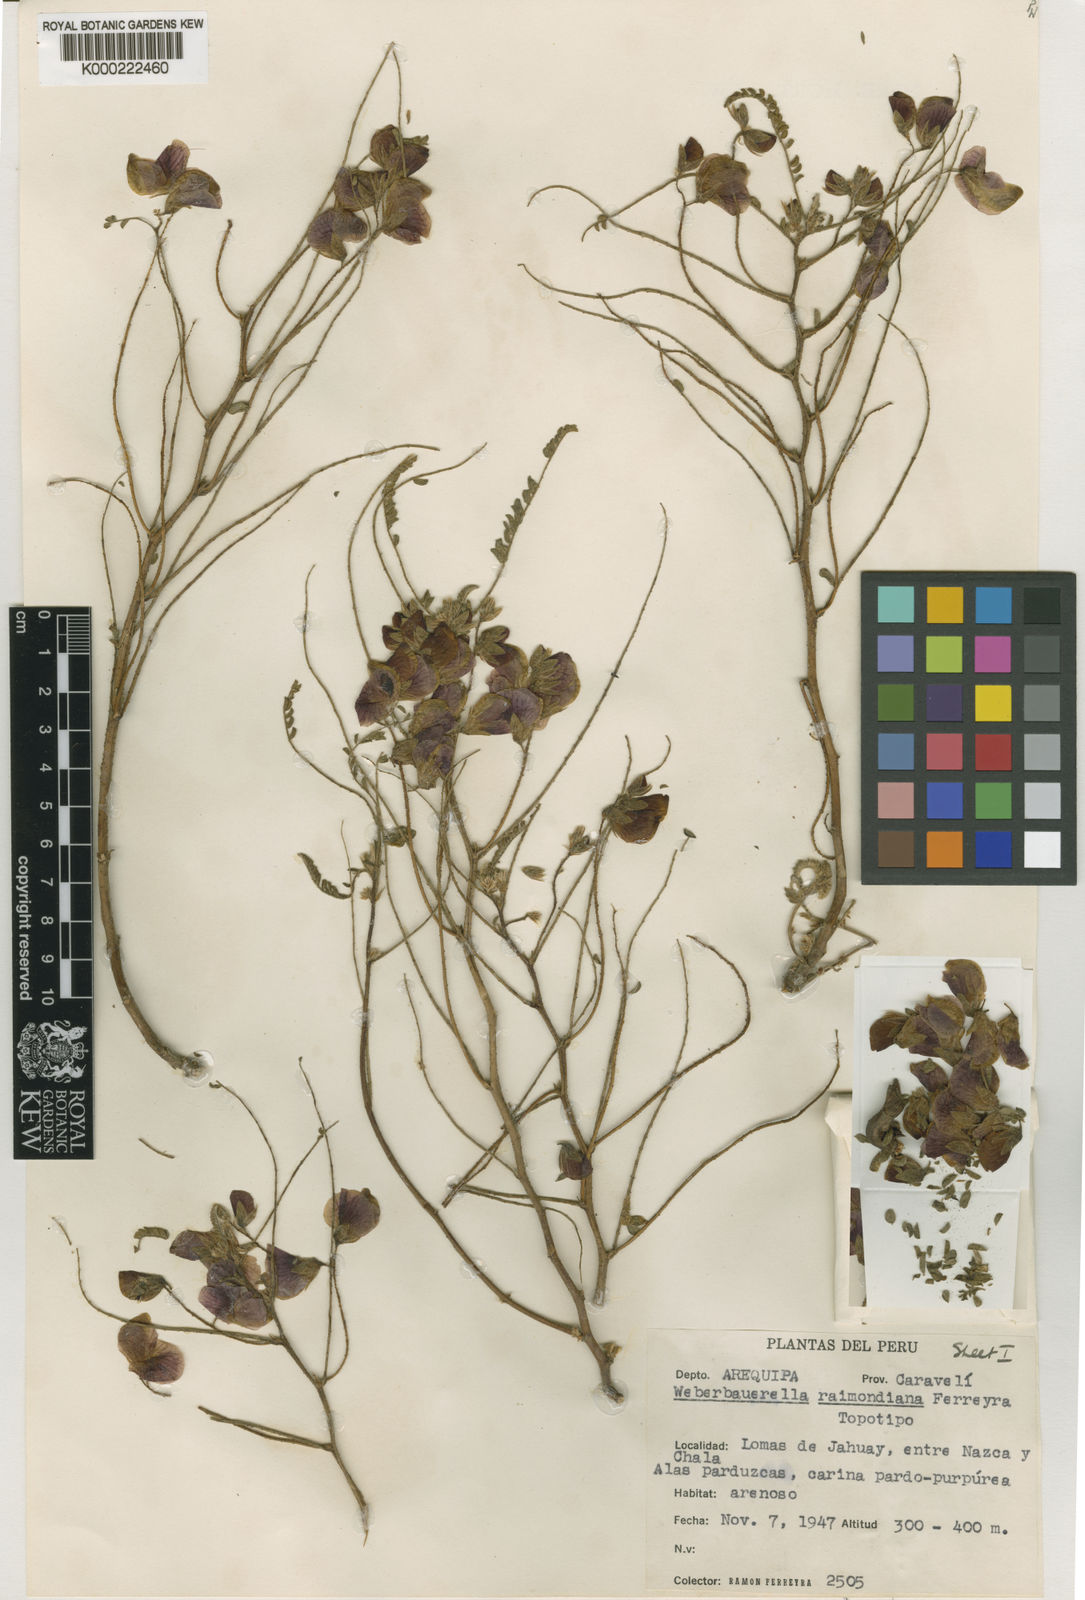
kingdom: Plantae
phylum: Tracheophyta
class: Magnoliopsida
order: Fabales
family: Fabaceae
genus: Weberbauerella
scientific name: Weberbauerella raimondiana
